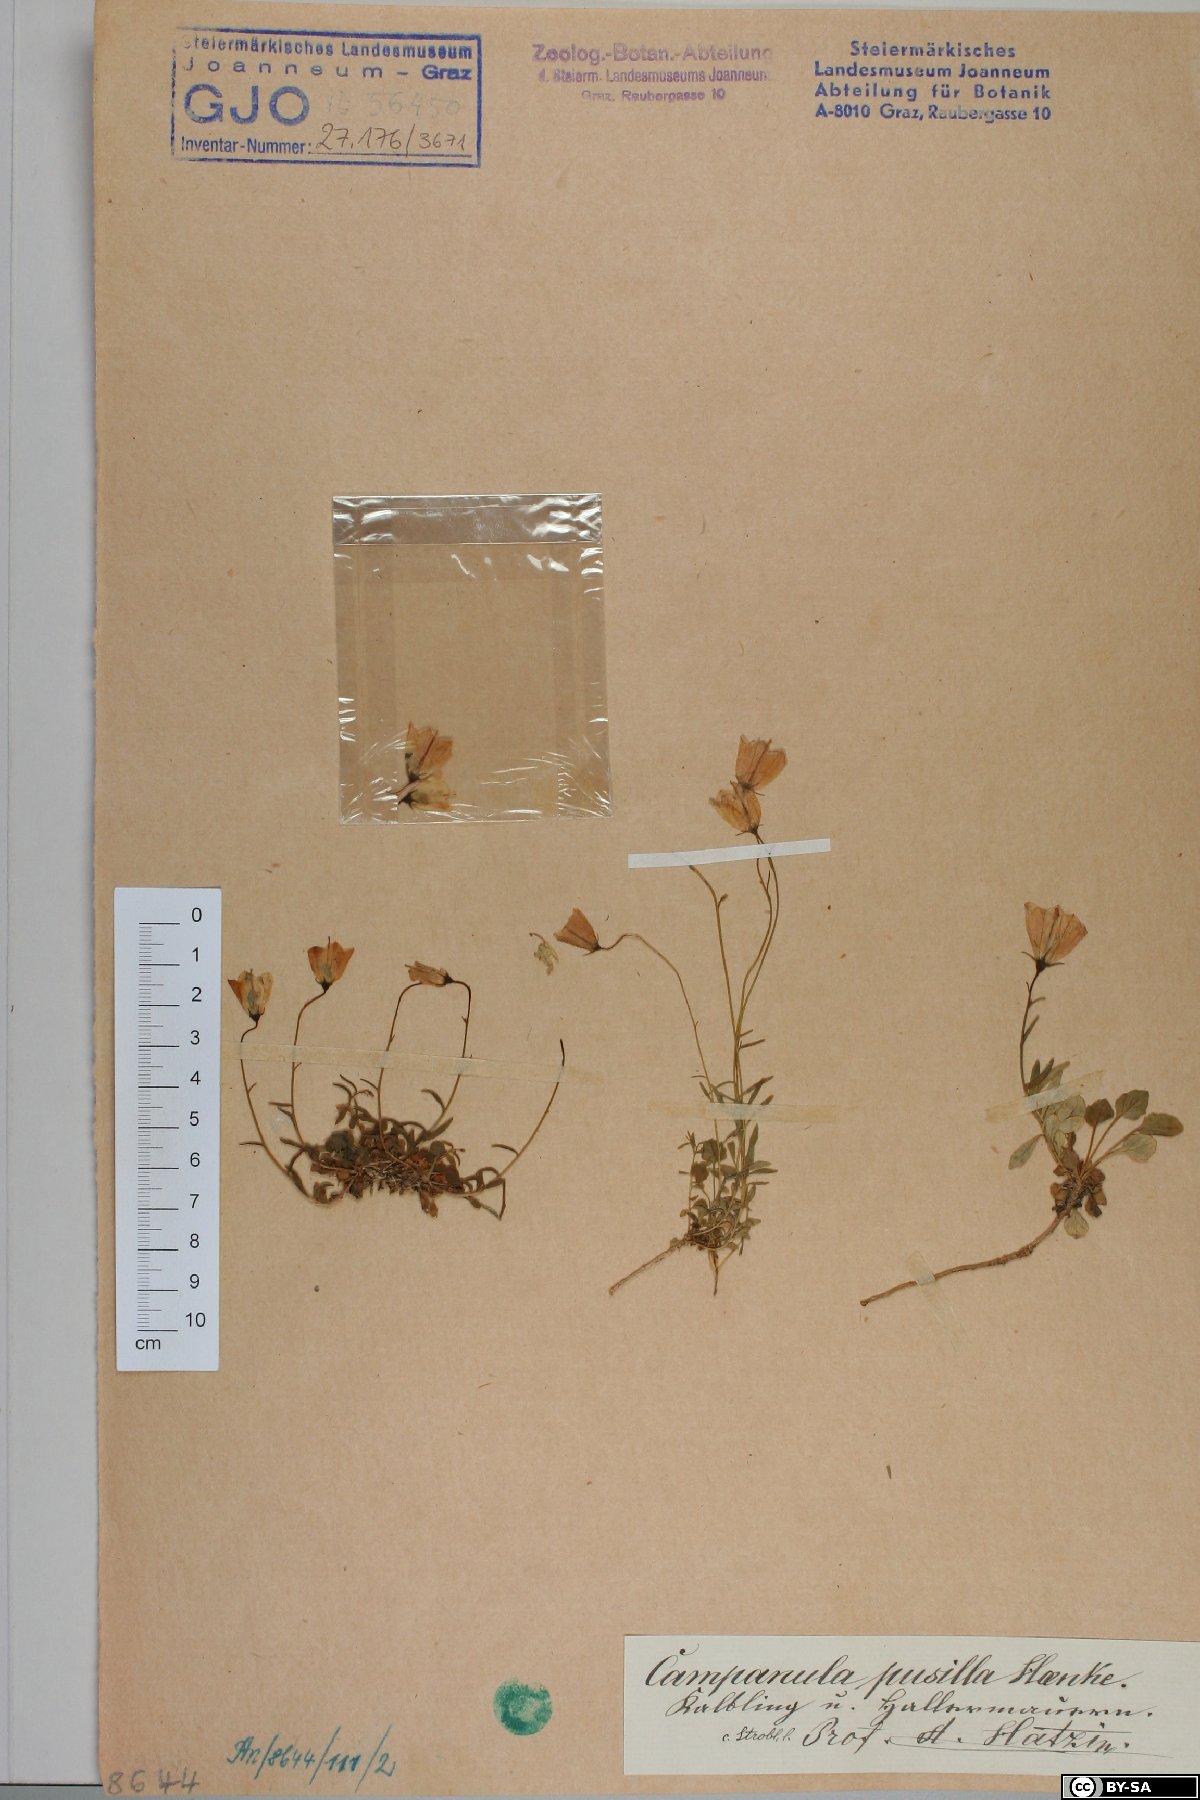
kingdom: Plantae
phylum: Tracheophyta
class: Magnoliopsida
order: Asterales
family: Campanulaceae
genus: Campanula
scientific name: Campanula cochleariifolia
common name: Fairies'-thimbles
